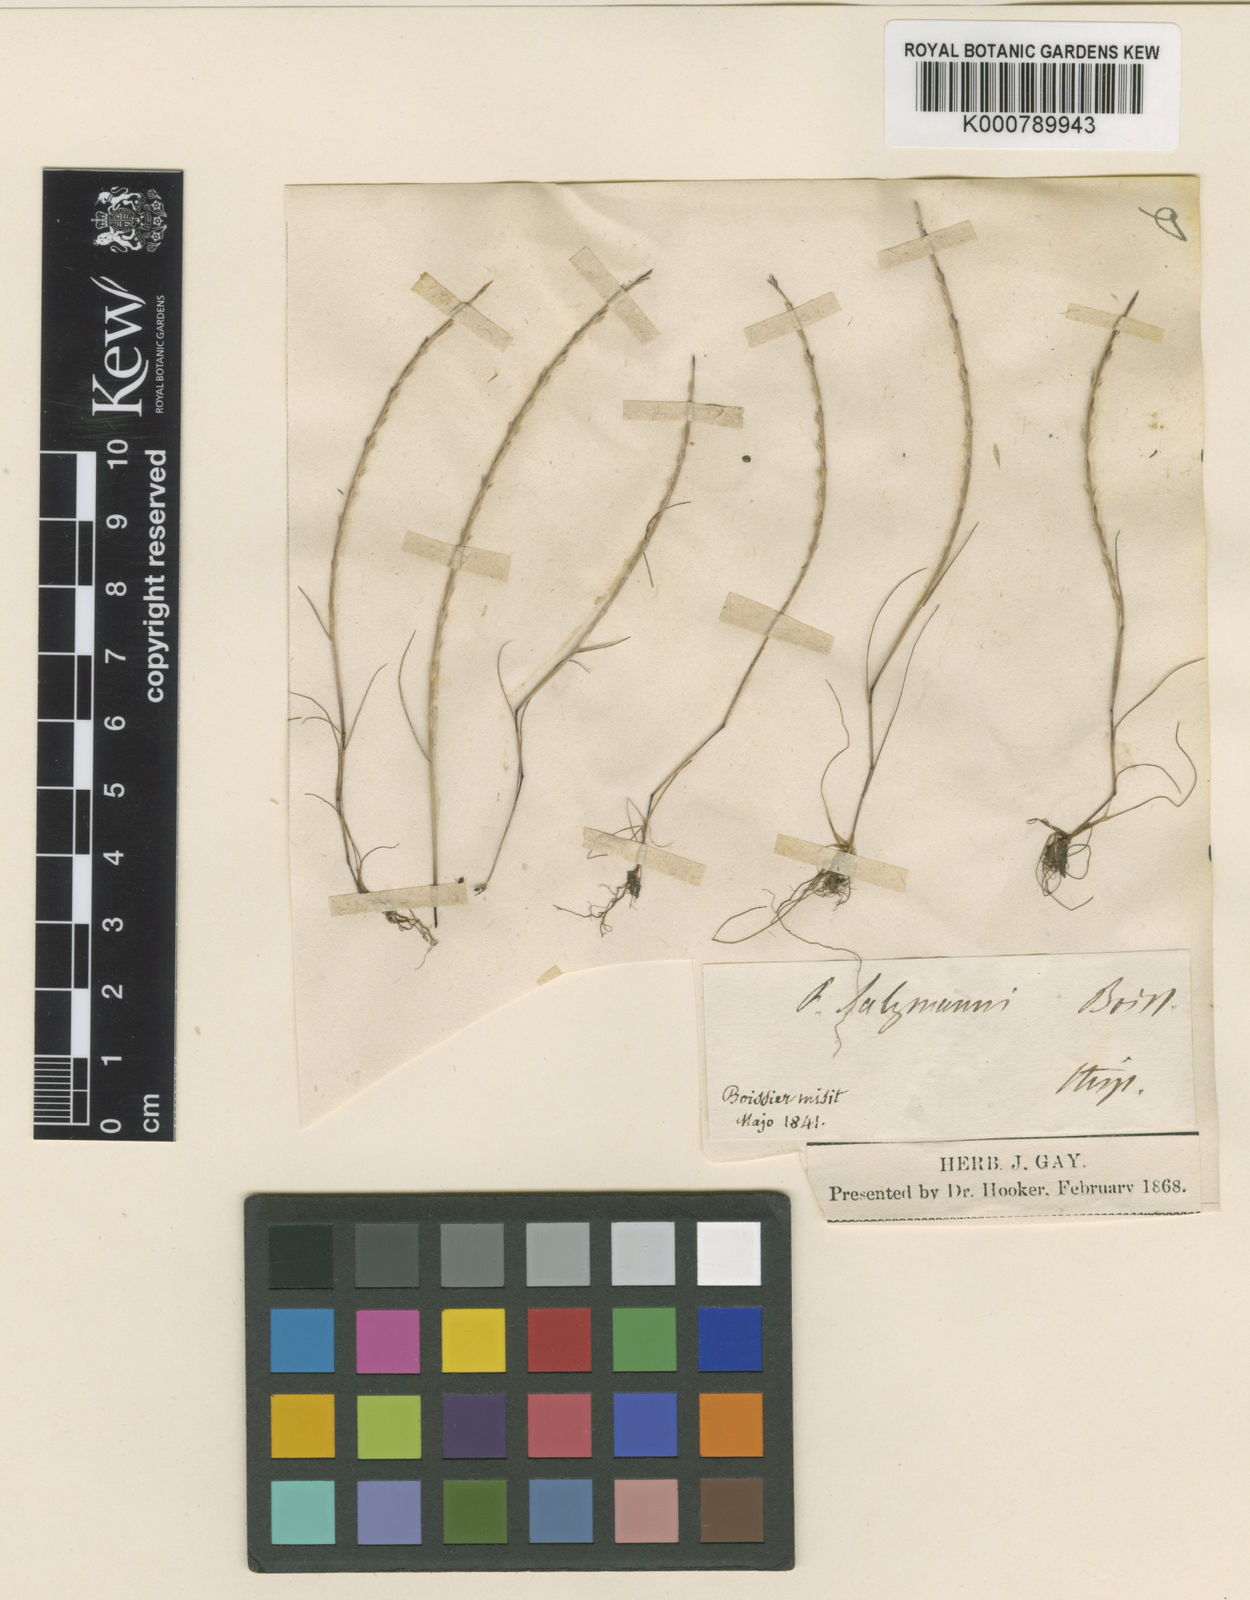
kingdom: Plantae
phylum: Tracheophyta
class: Liliopsida
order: Poales
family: Poaceae
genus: Festuca
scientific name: Festuca salzmannii
